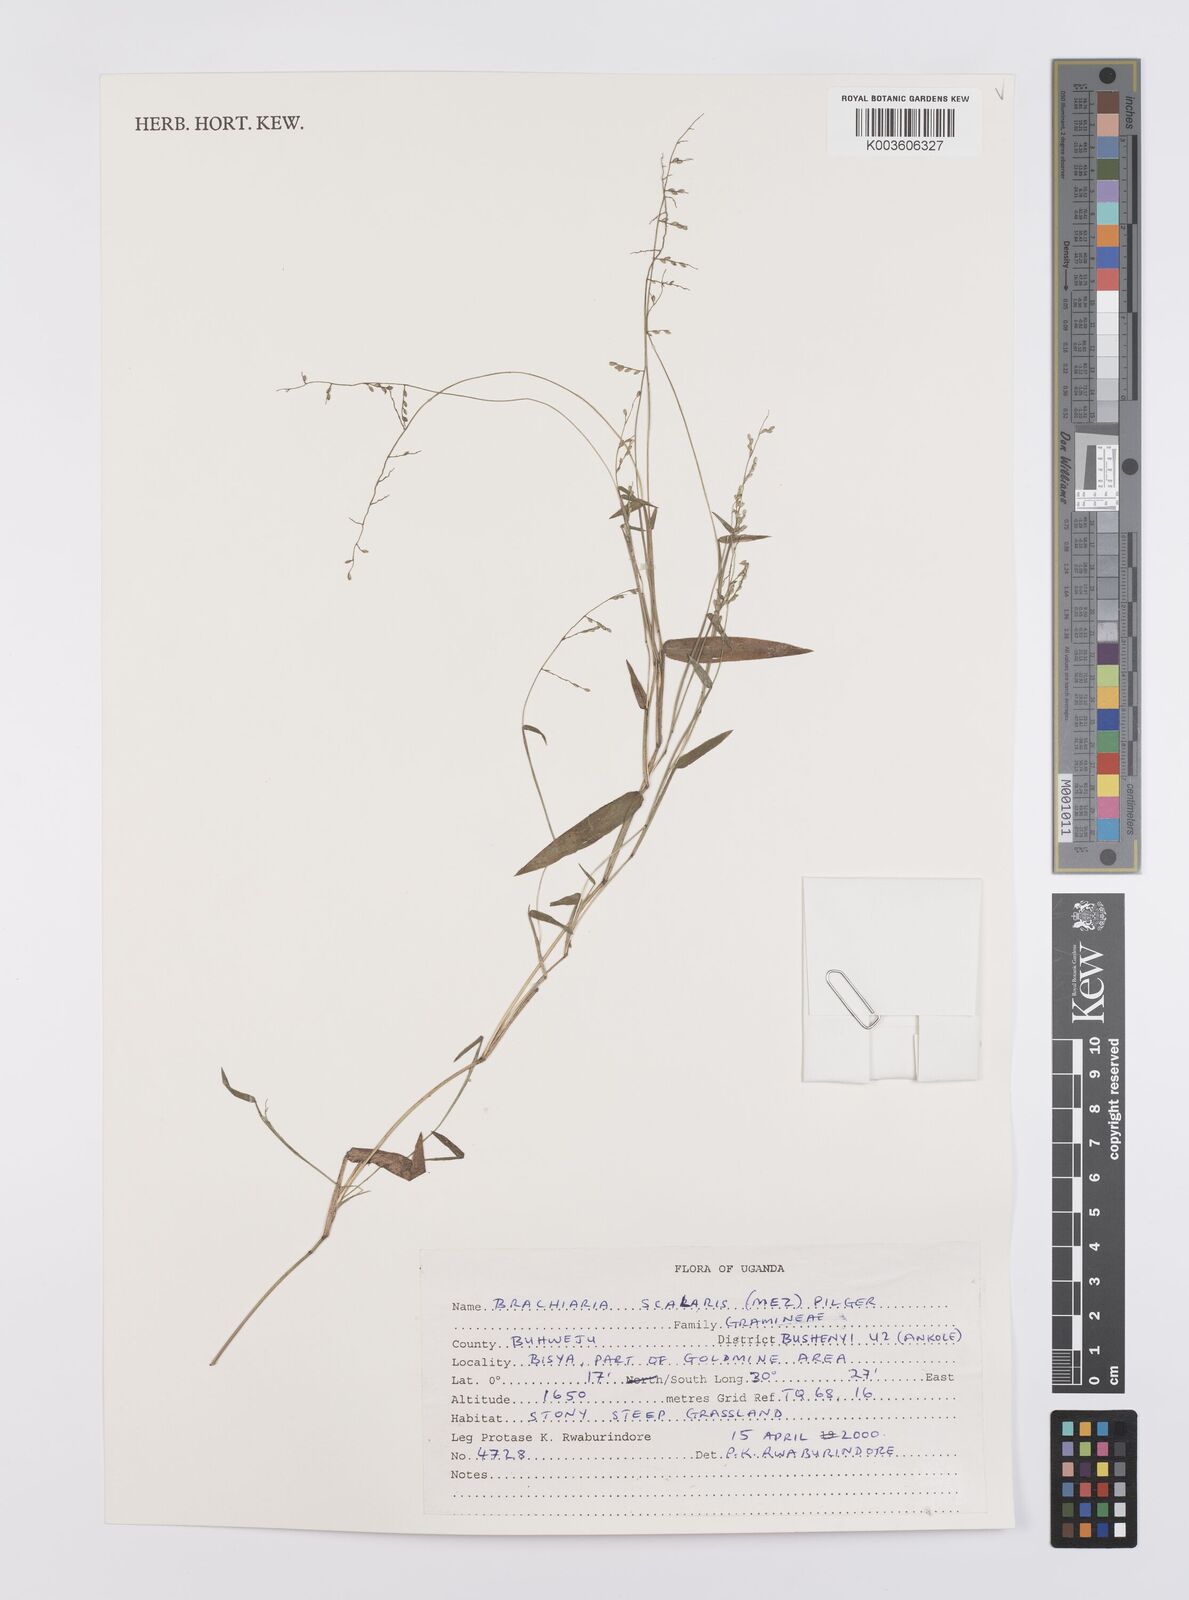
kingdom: Plantae
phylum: Tracheophyta
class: Liliopsida
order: Poales
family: Poaceae
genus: Urochloa
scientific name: Urochloa comata
